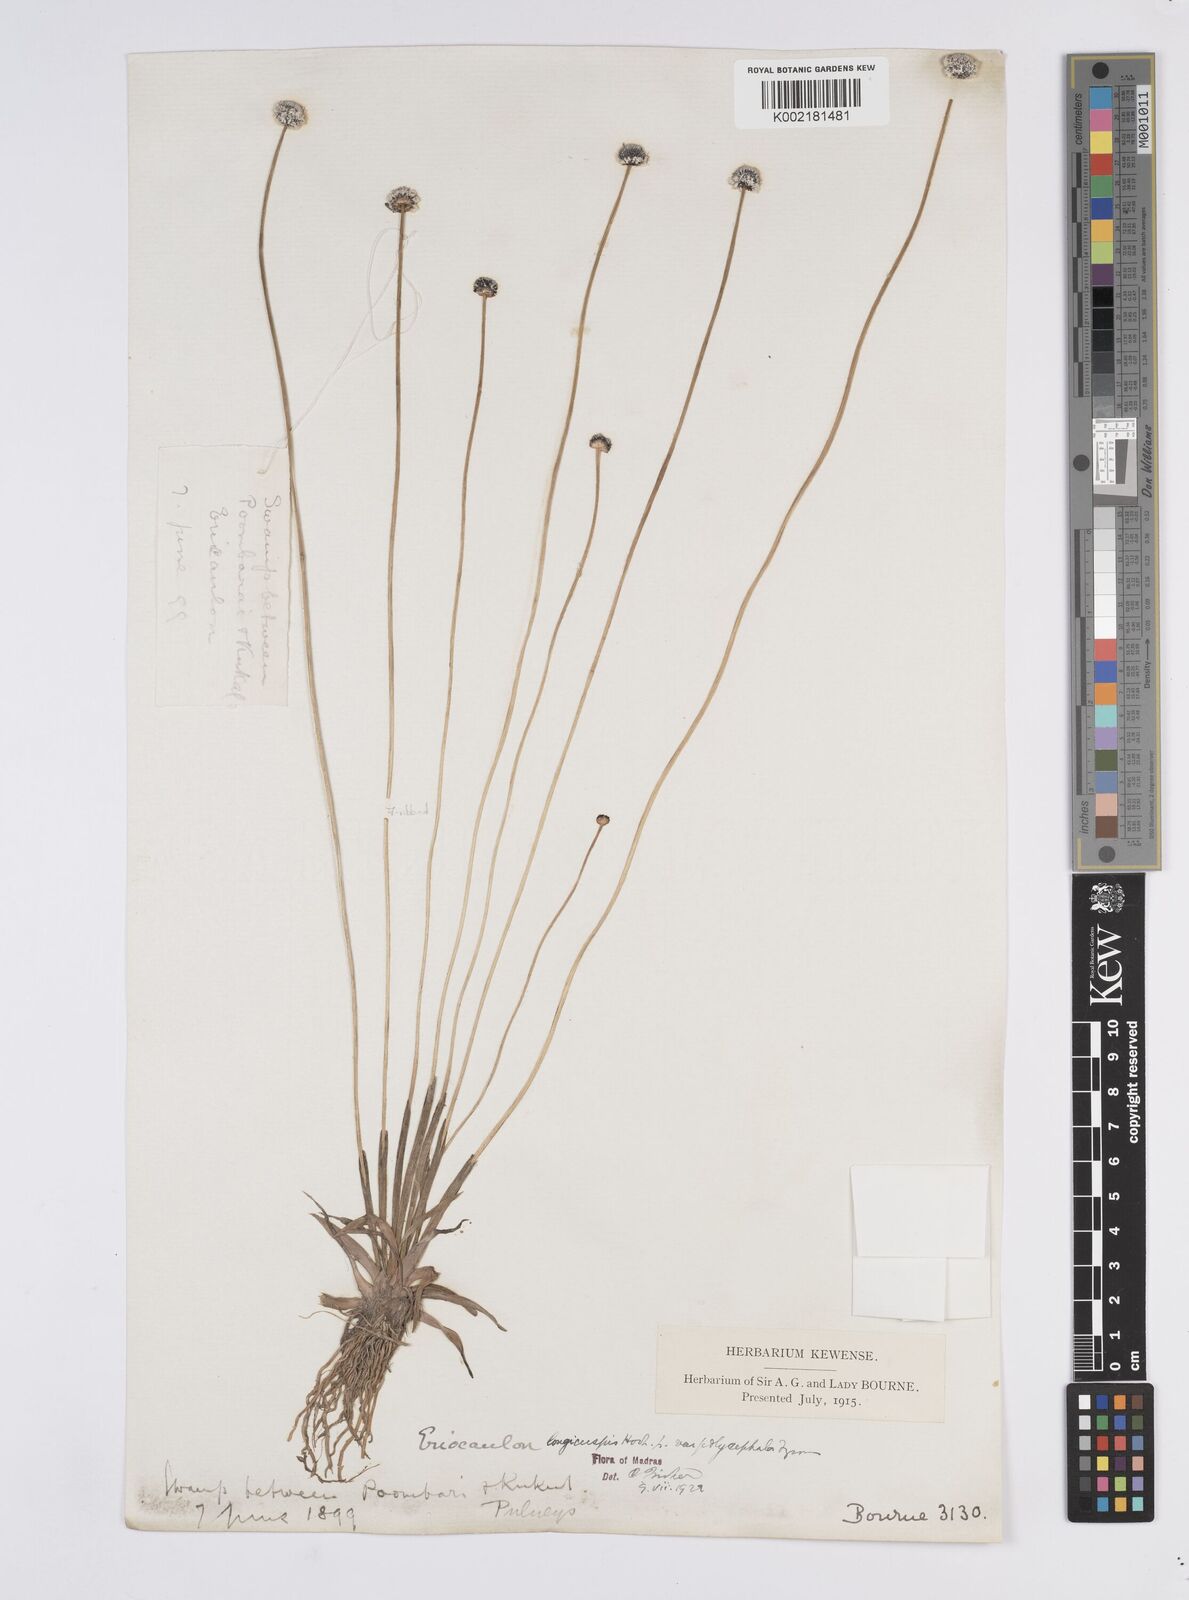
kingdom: Plantae
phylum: Tracheophyta
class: Liliopsida
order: Poales
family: Eriocaulaceae
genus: Eriocaulon
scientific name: Eriocaulon longicuspe
